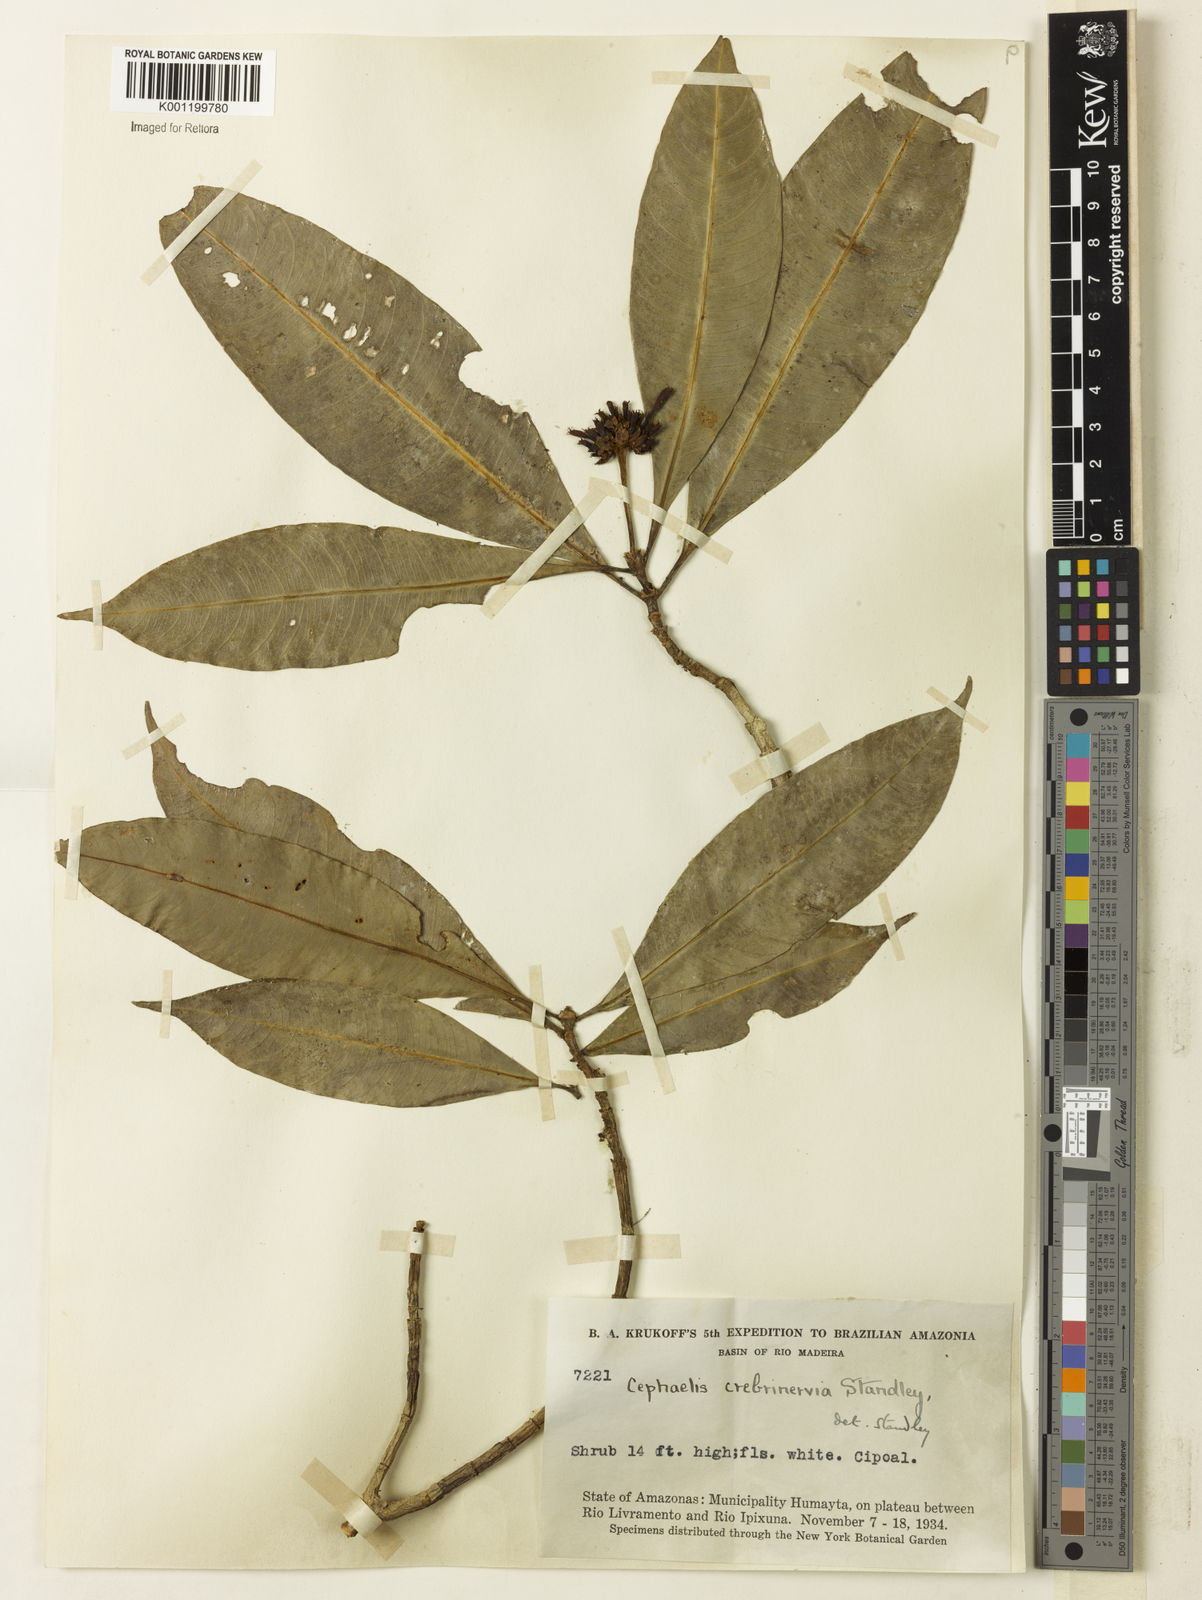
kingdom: Plantae
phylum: Tracheophyta
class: Magnoliopsida
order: Gentianales
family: Rubiaceae
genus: Carapichea
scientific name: Carapichea crebrinervia
